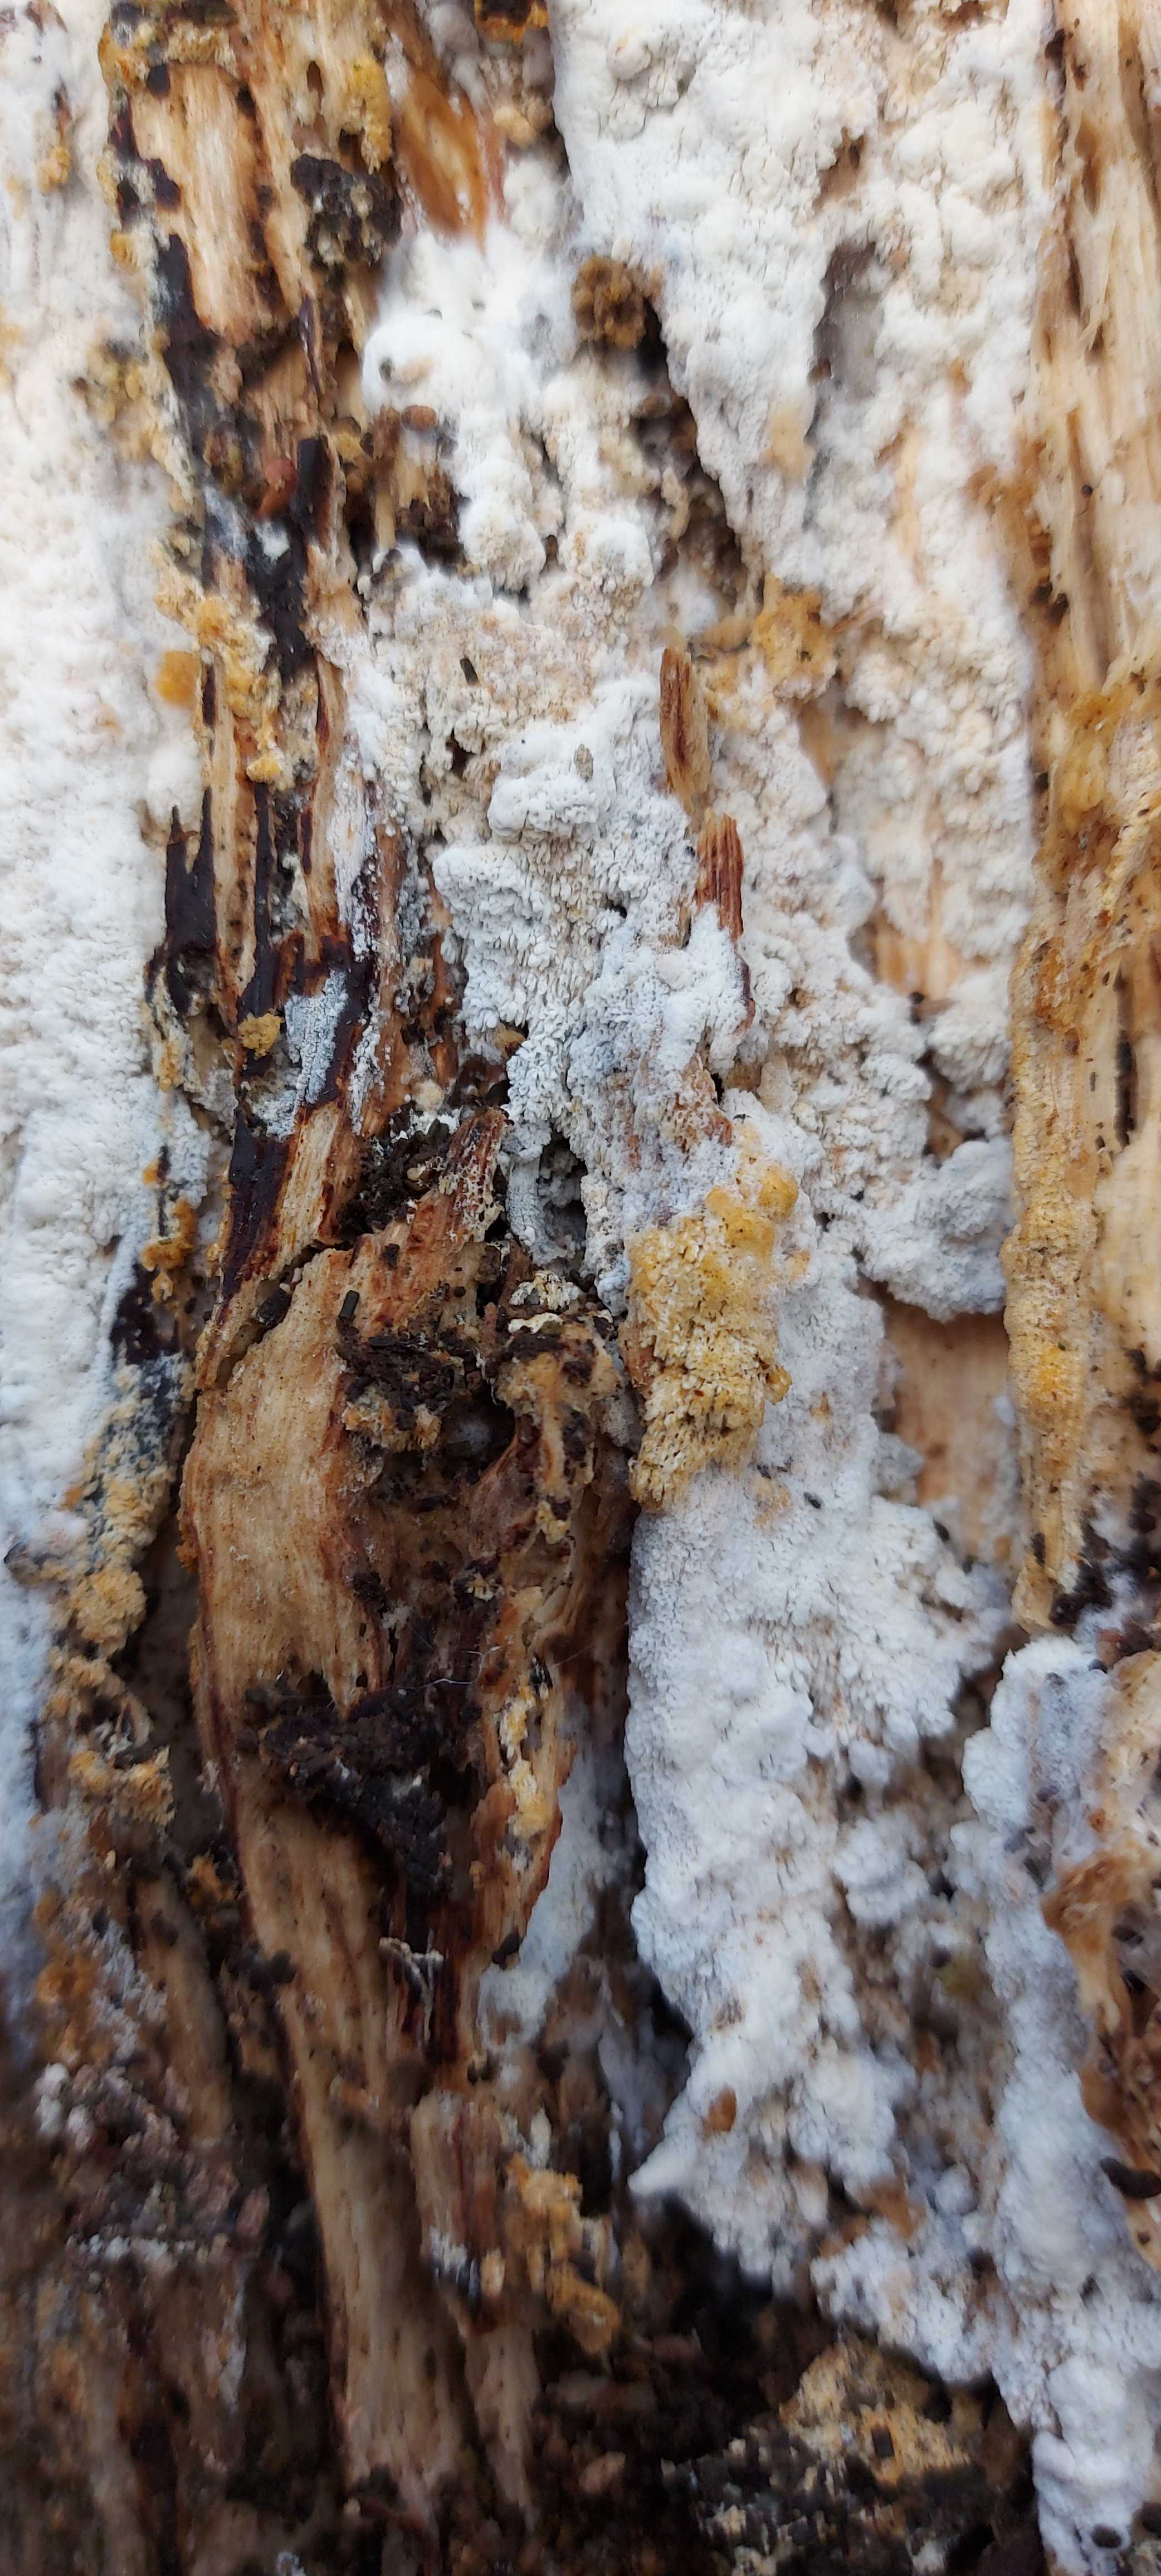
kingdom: Fungi
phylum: Basidiomycota
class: Agaricomycetes
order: Polyporales
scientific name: Polyporales
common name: poresvampordenen
